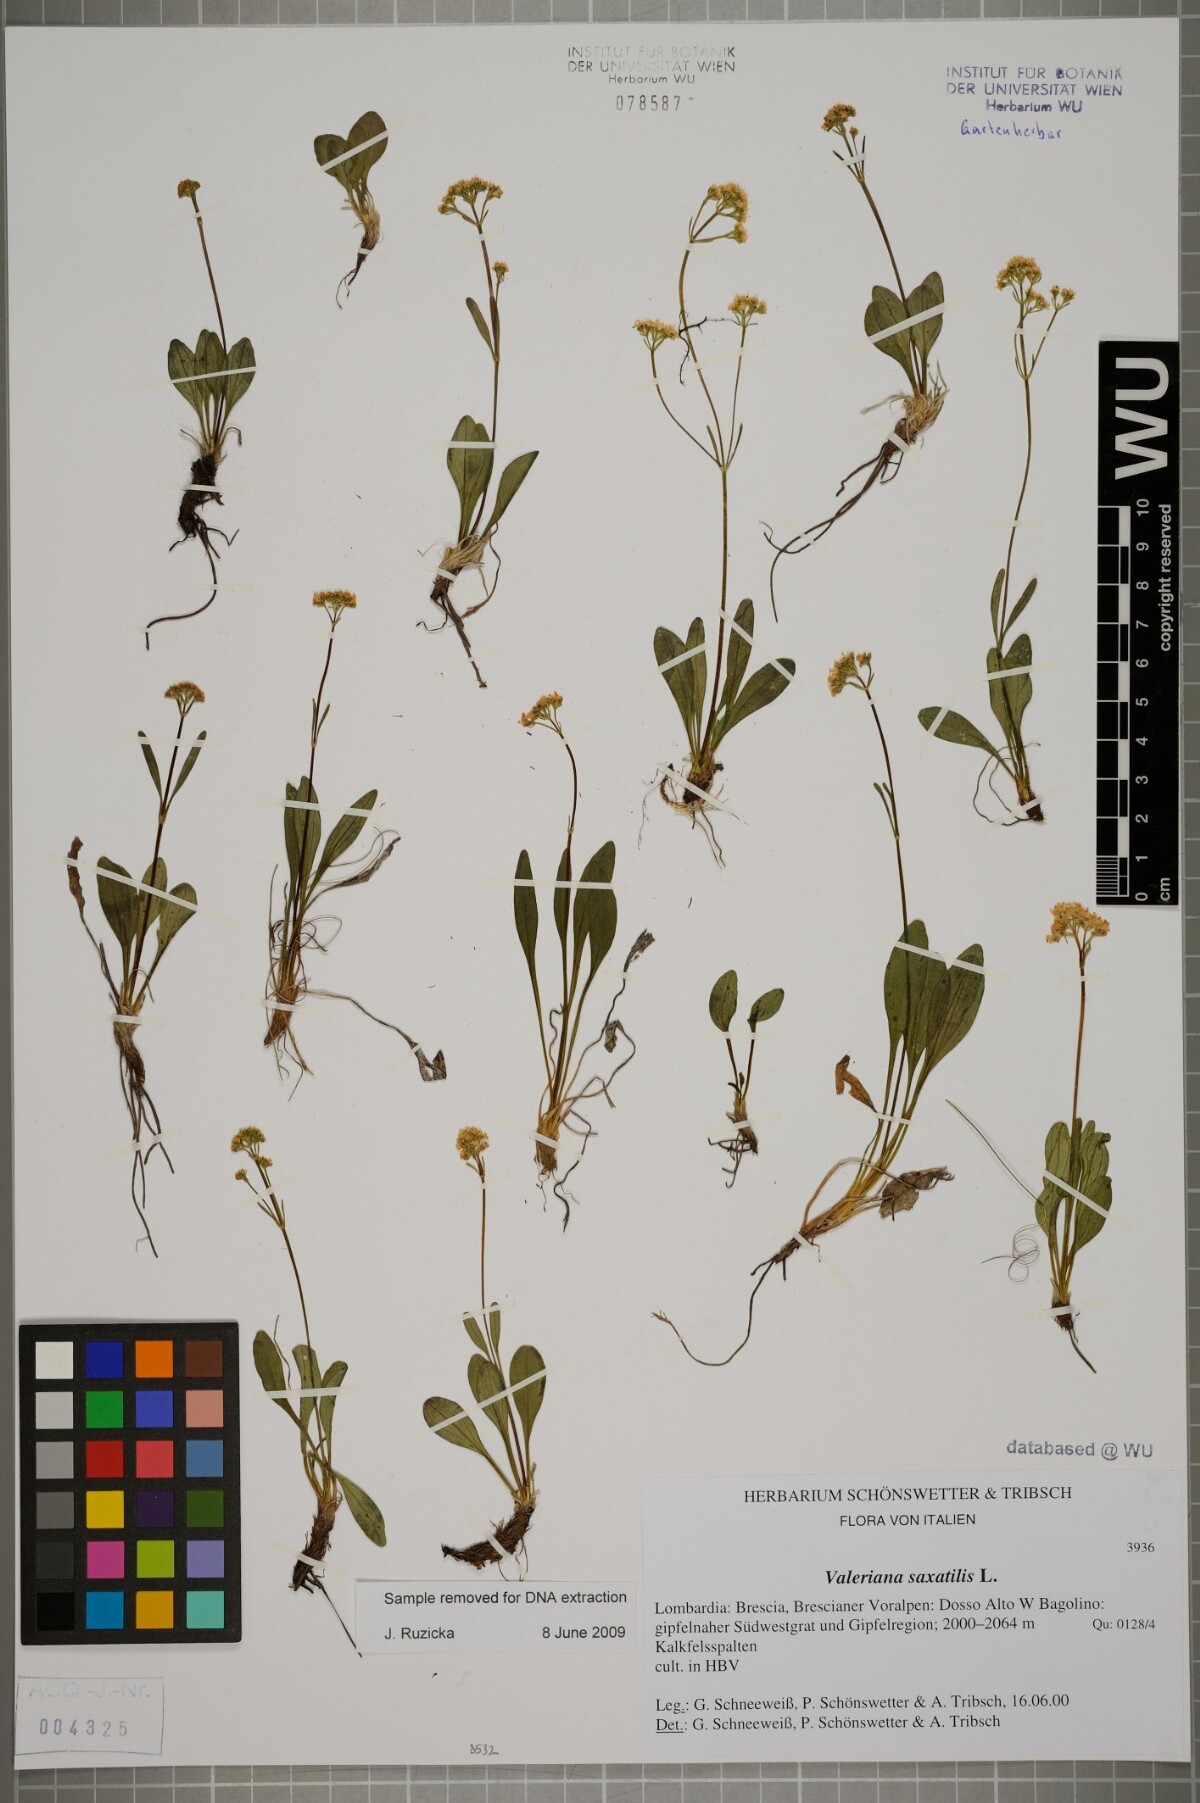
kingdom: Plantae
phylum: Tracheophyta
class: Magnoliopsida
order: Dipsacales
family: Caprifoliaceae
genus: Valeriana
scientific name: Valeriana saxatilis
